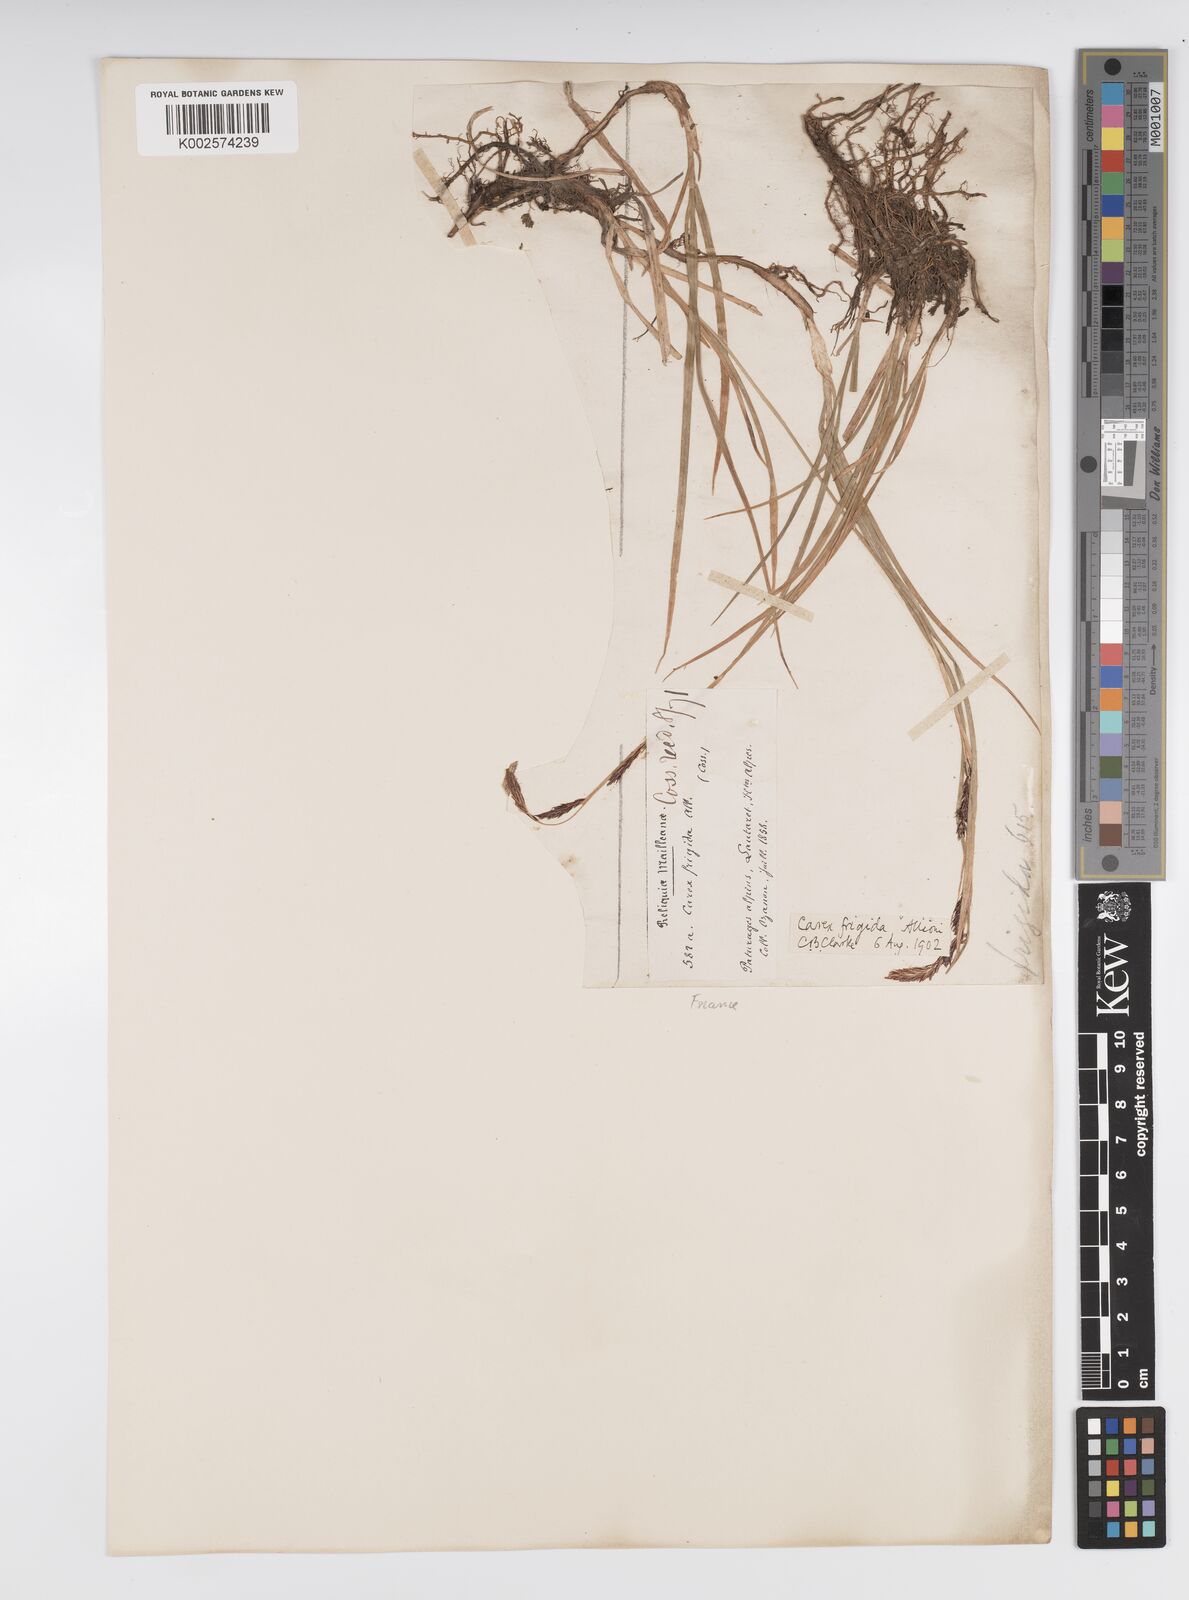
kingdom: Plantae
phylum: Tracheophyta
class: Liliopsida
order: Poales
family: Cyperaceae
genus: Carex
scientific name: Carex frigida
